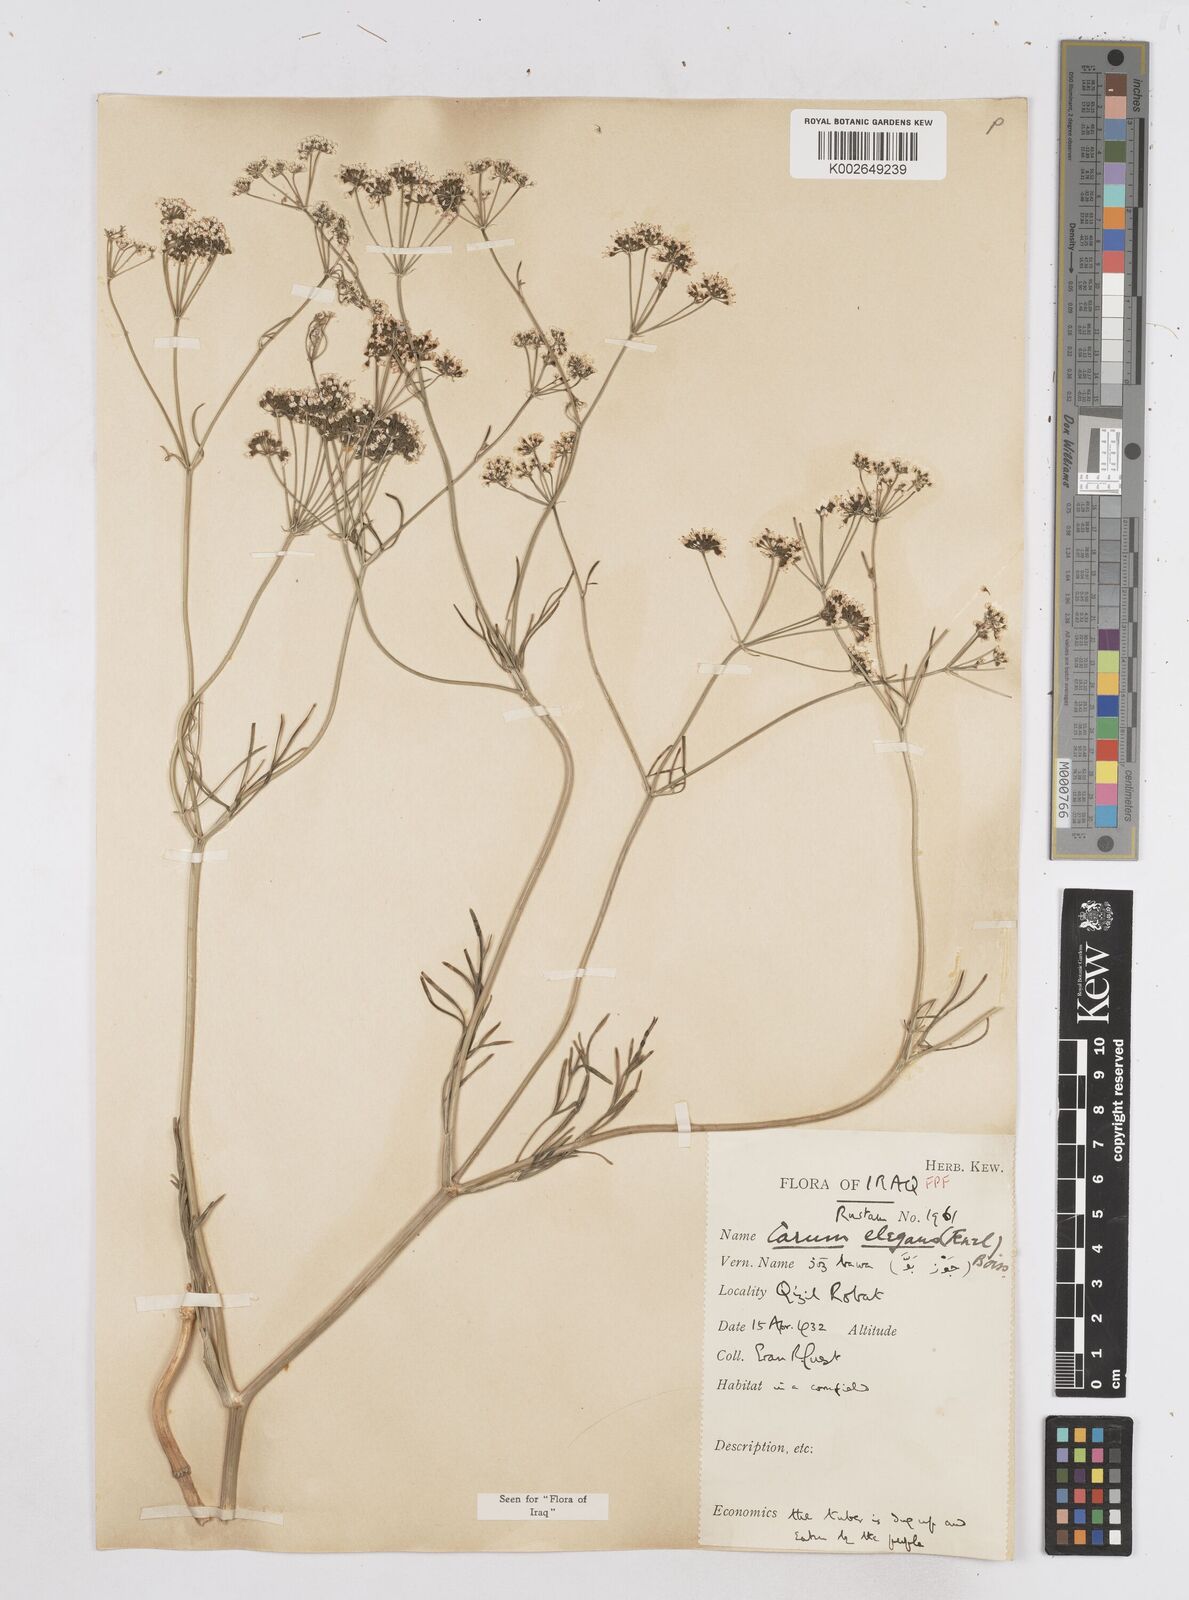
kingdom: Plantae
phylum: Tracheophyta
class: Magnoliopsida
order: Apiales
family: Apiaceae
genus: Bunium
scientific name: Bunium paucifolium
